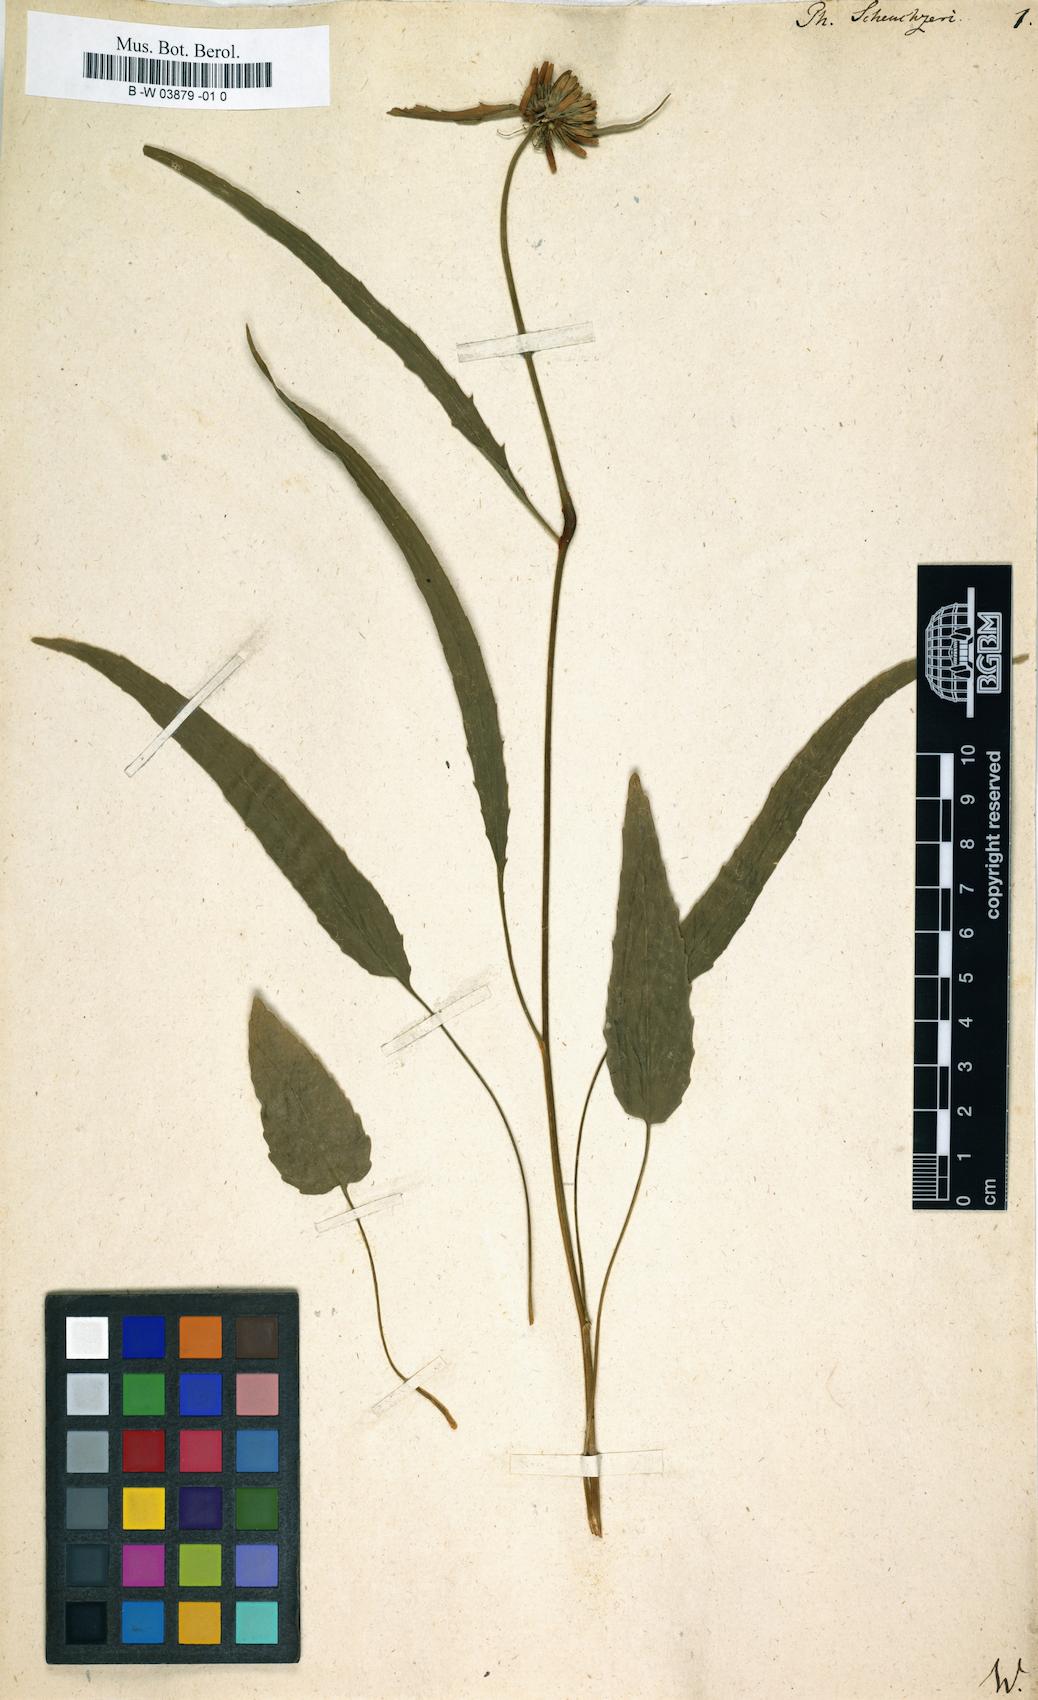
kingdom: Plantae
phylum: Tracheophyta
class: Magnoliopsida
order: Asterales
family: Campanulaceae
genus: Phyteuma
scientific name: Phyteuma scheuchzeri
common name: Oxford rampion
